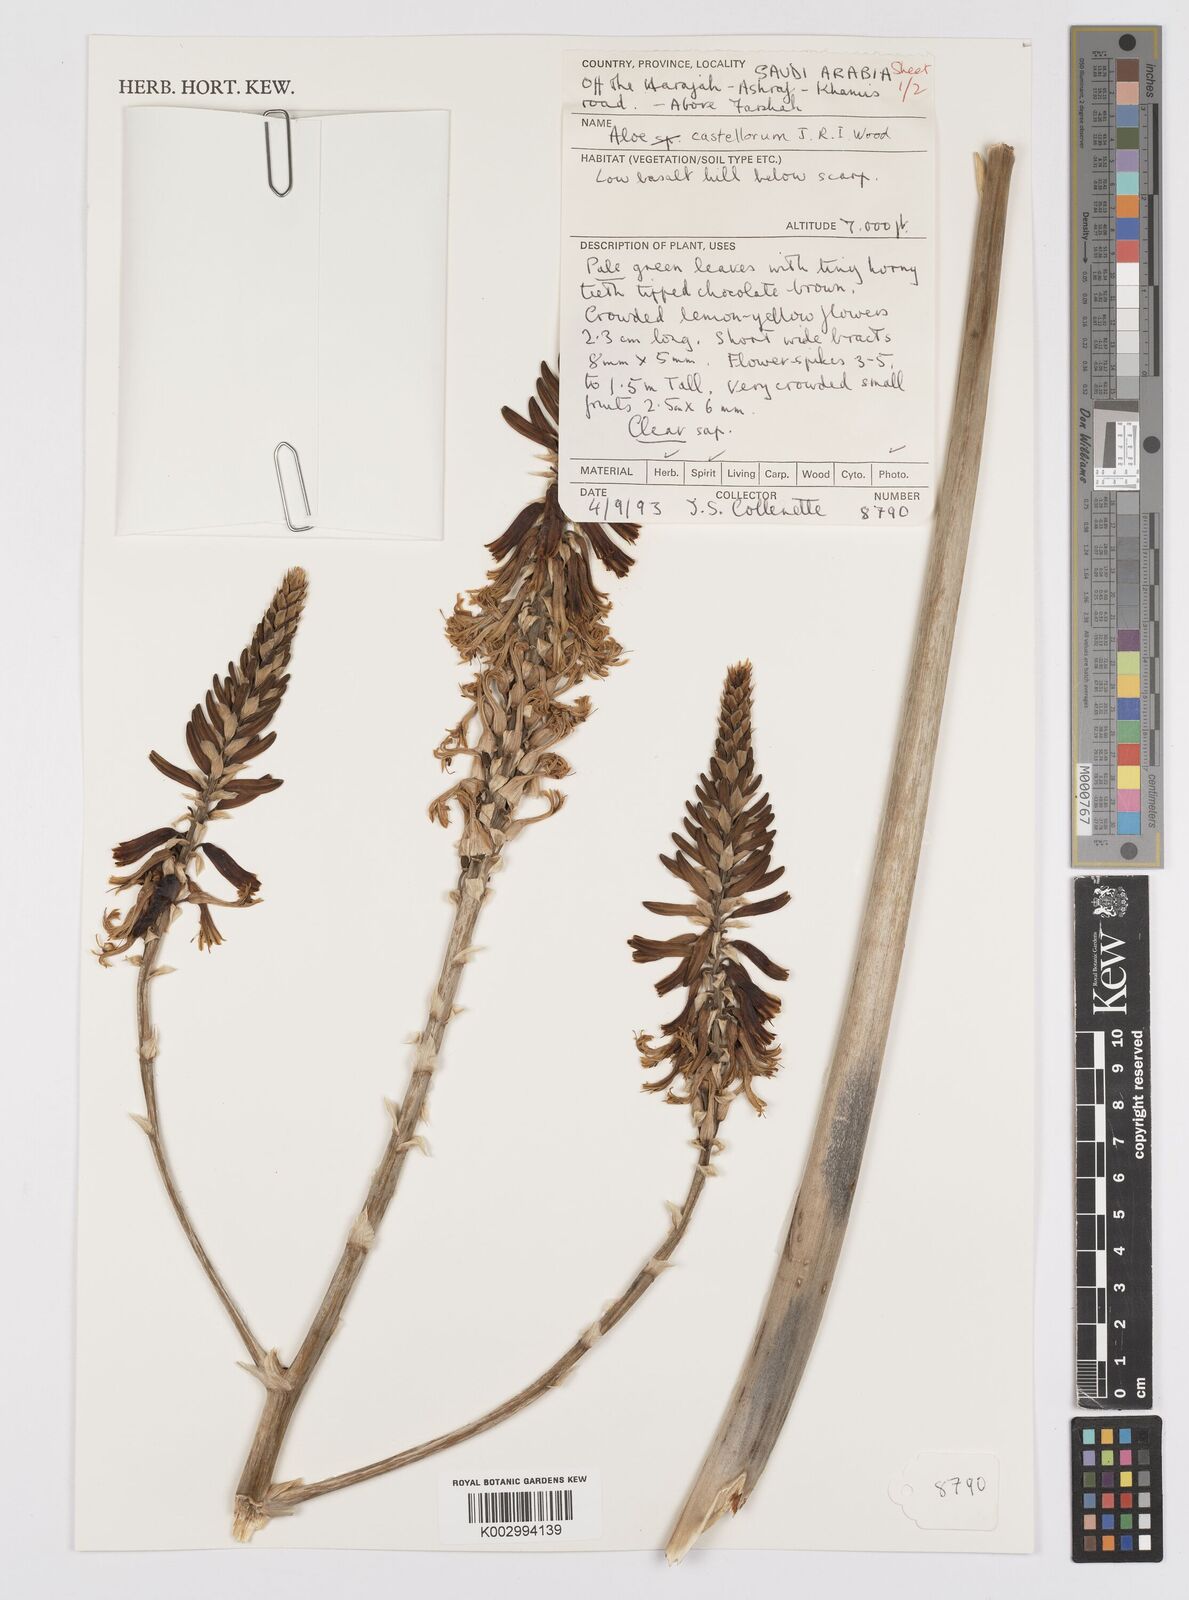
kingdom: Plantae
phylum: Tracheophyta
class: Liliopsida
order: Asparagales
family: Asphodelaceae
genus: Aloe
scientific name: Aloe castellorum
